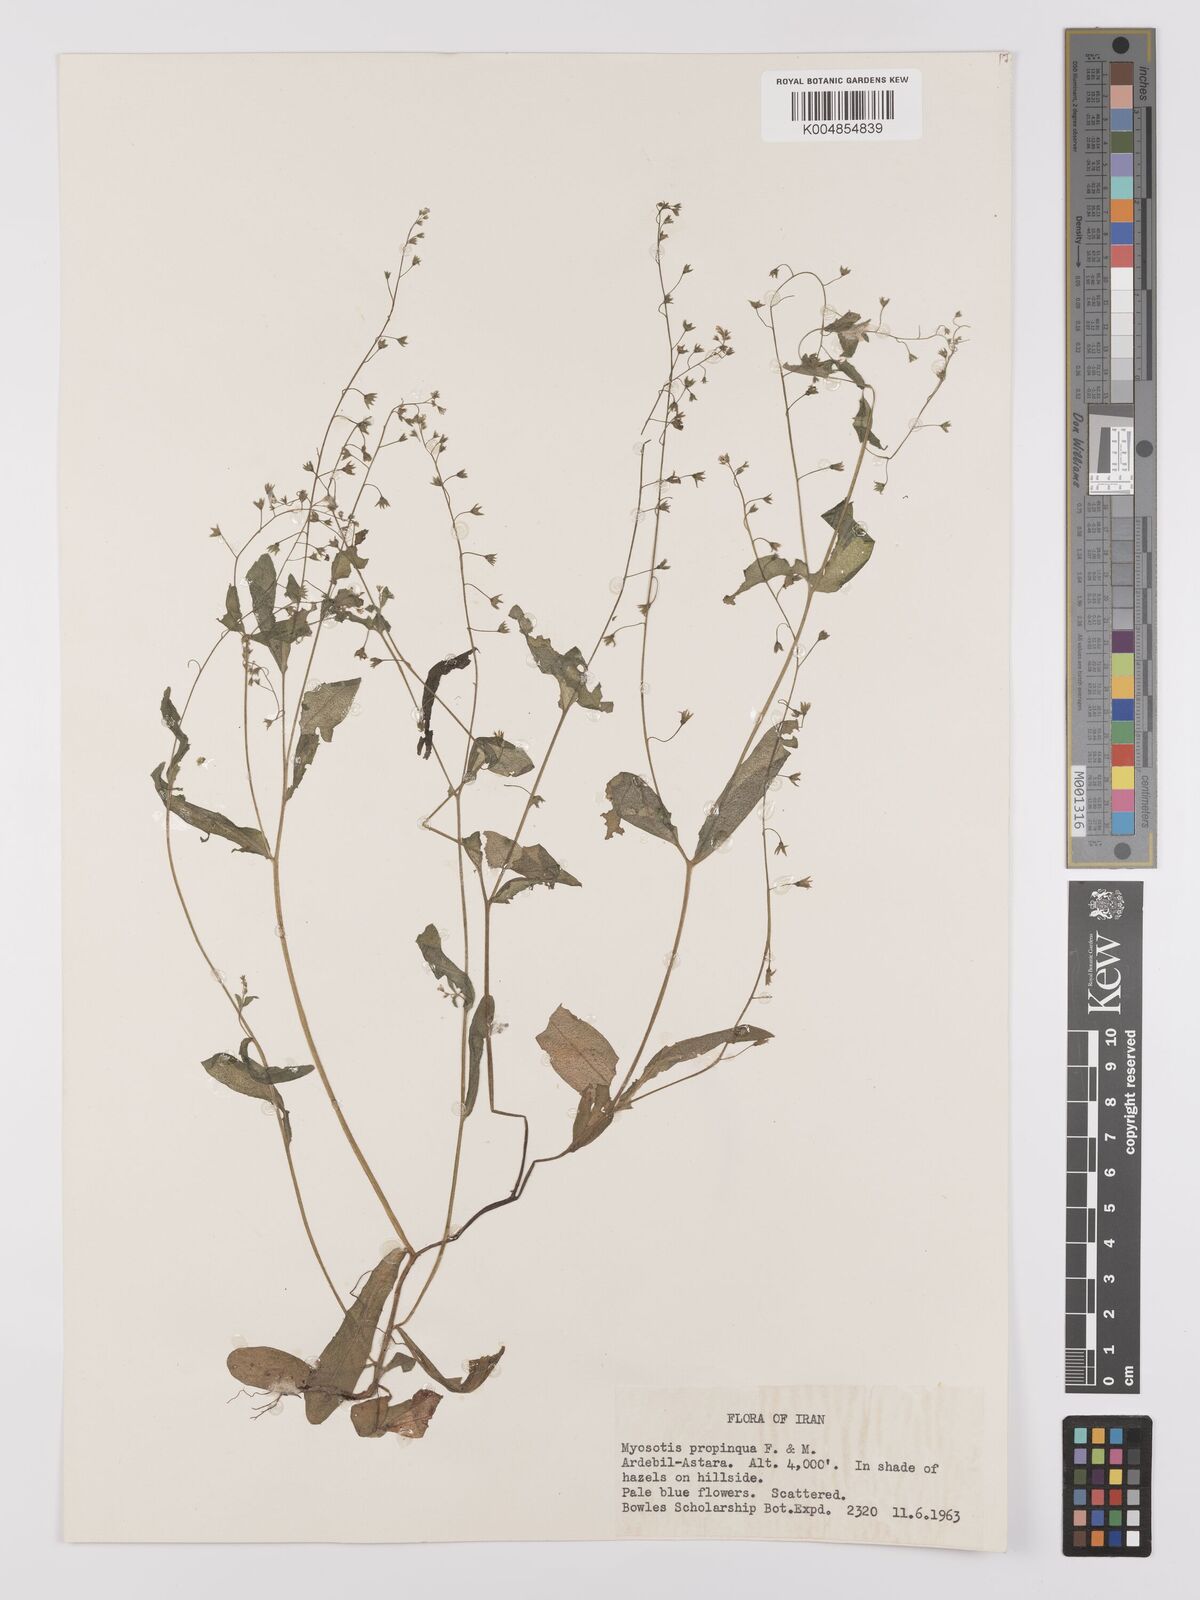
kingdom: Plantae
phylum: Tracheophyta
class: Magnoliopsida
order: Boraginales
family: Boraginaceae
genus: Myosotis
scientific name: Myosotis propinqua
